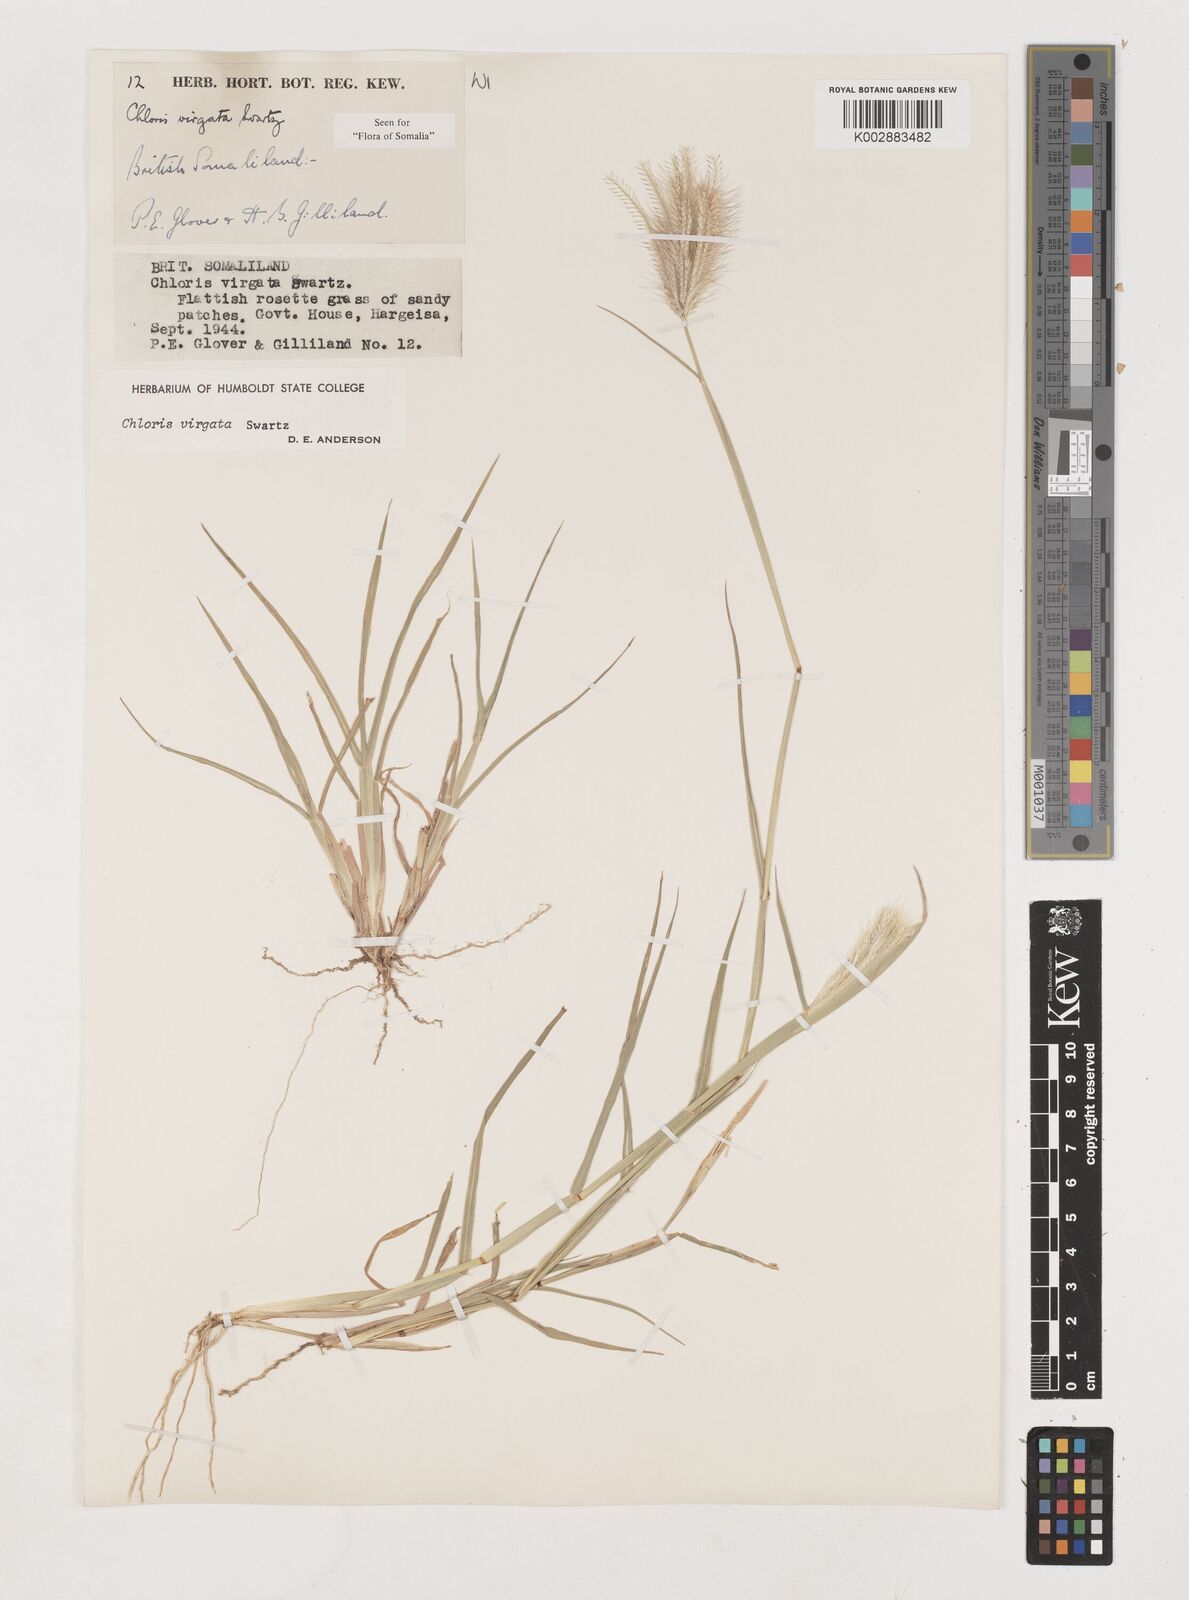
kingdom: Plantae
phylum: Tracheophyta
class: Liliopsida
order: Poales
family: Poaceae
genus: Chloris
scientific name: Chloris virgata
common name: Feathery rhodes-grass
